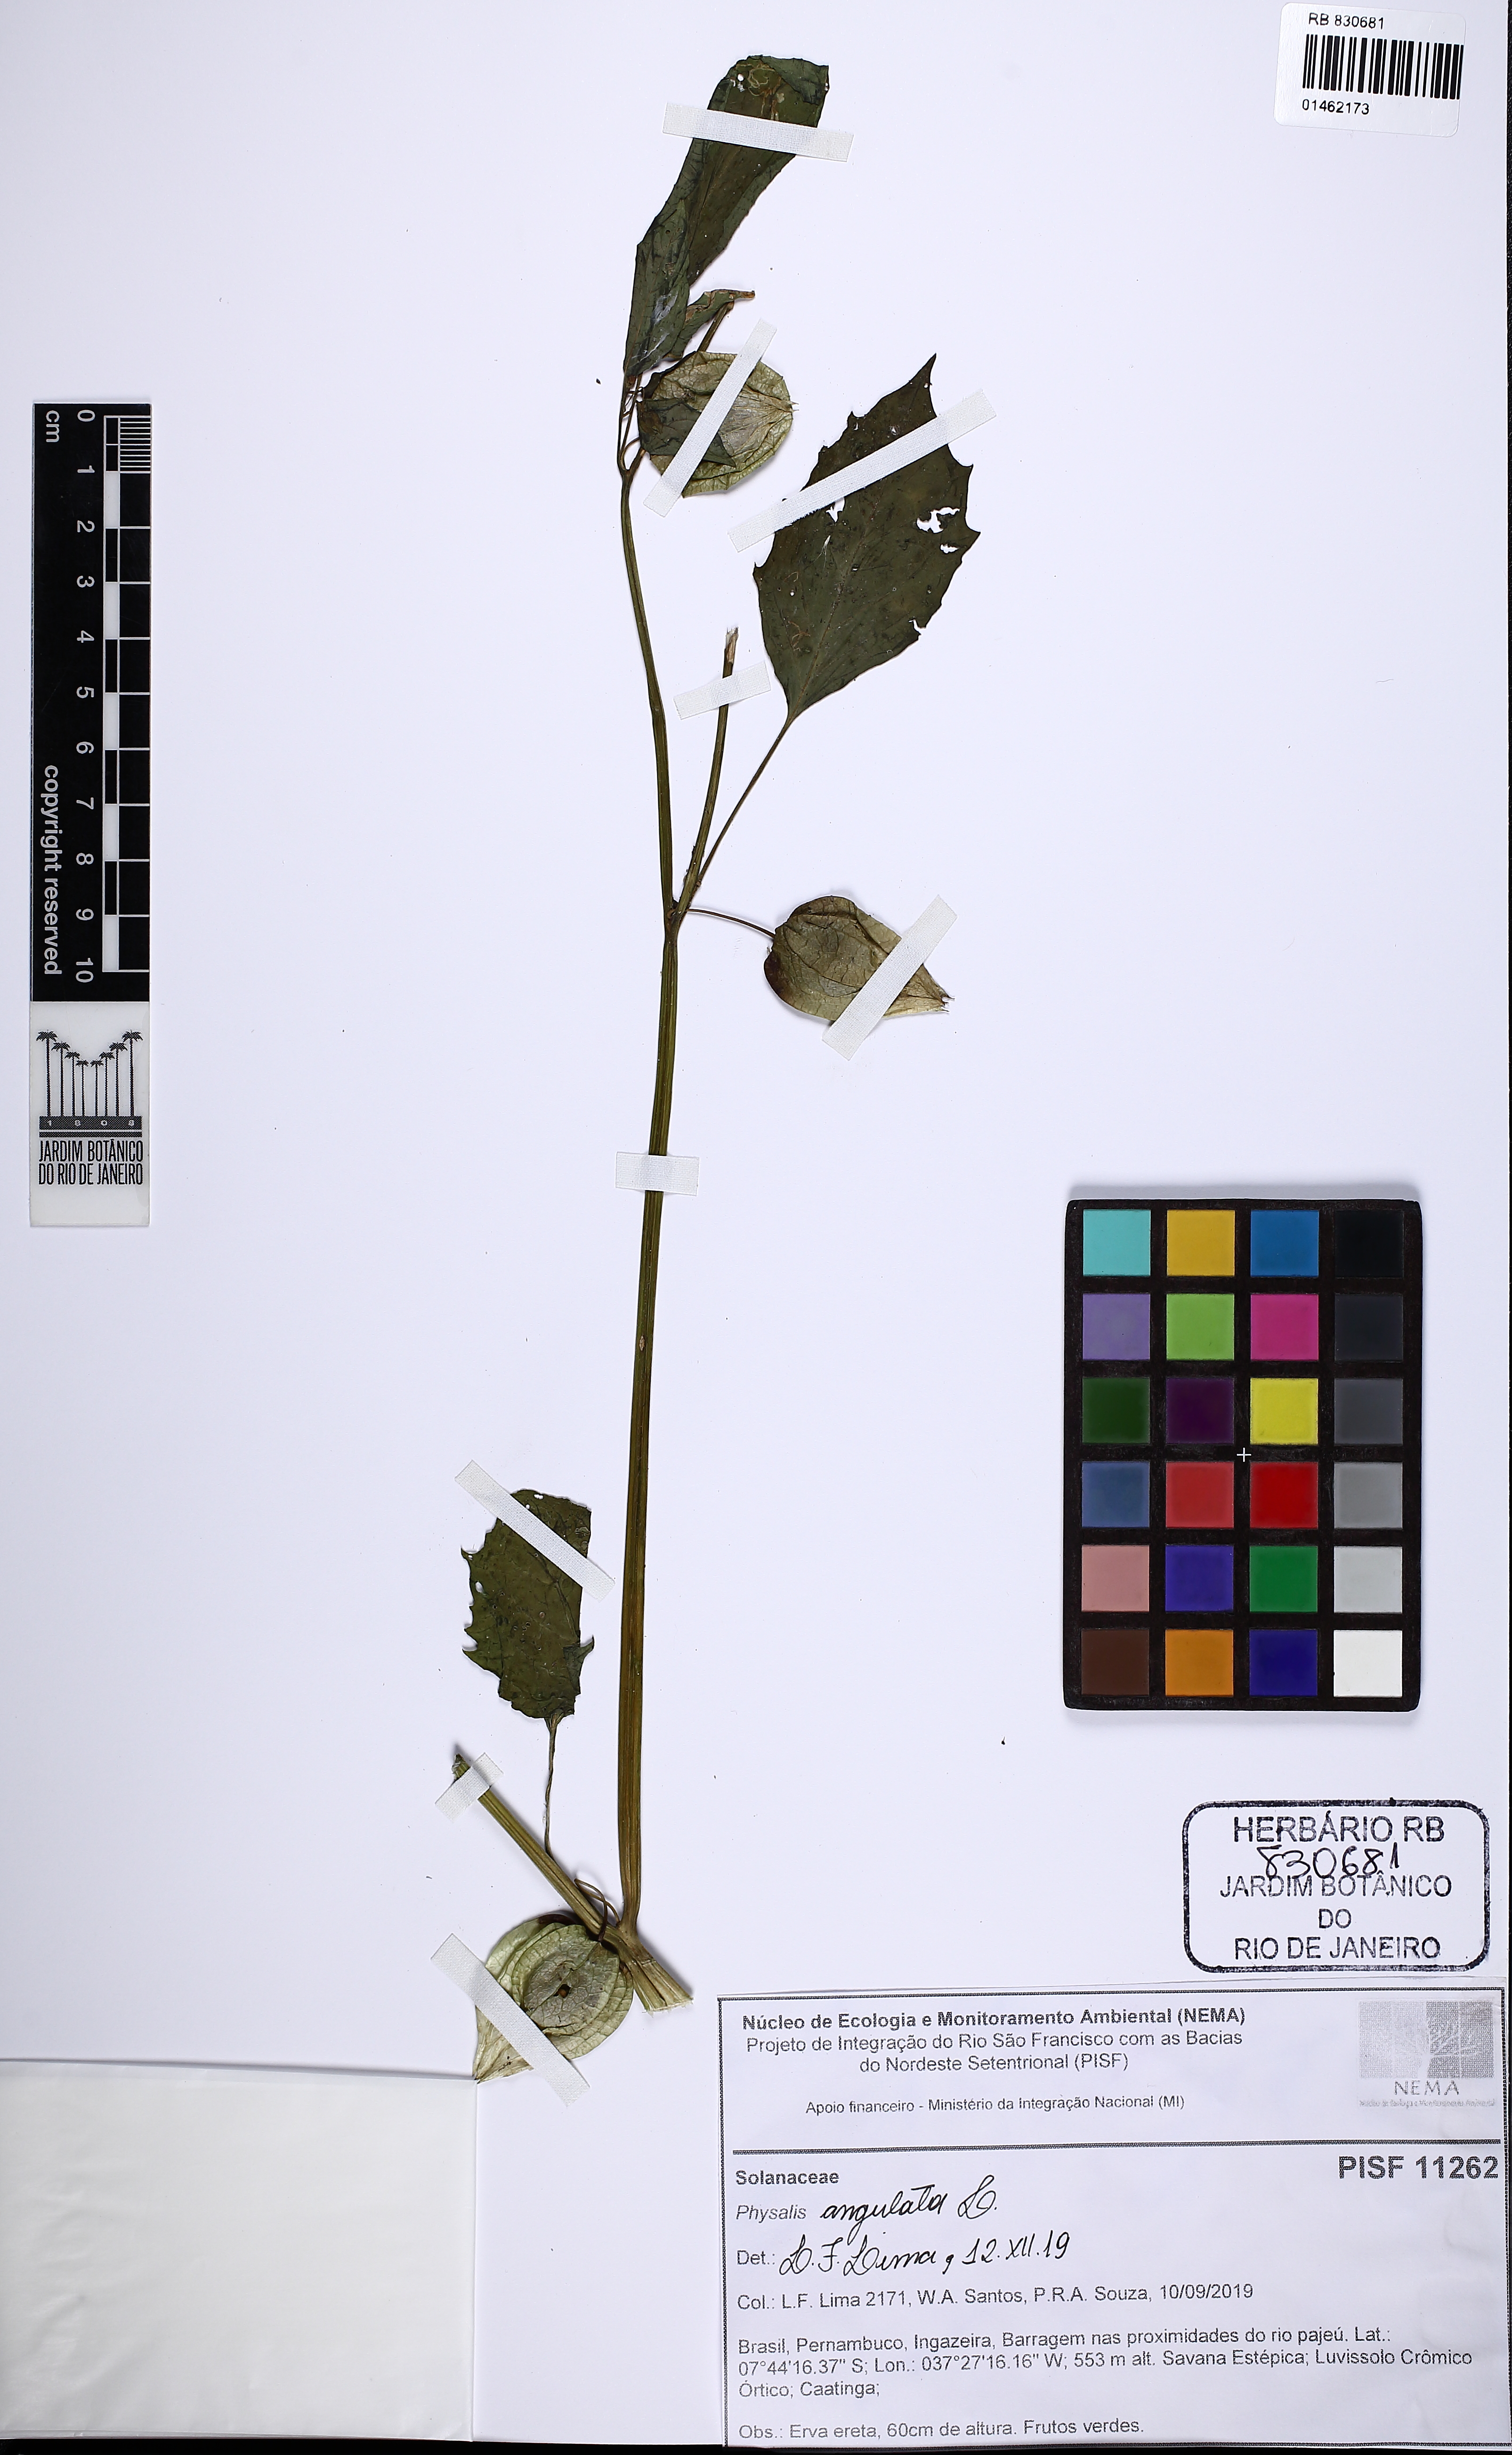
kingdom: Plantae
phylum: Tracheophyta
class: Magnoliopsida
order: Solanales
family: Solanaceae
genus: Physalis
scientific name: Physalis angulata
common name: Angular winter-cherry
